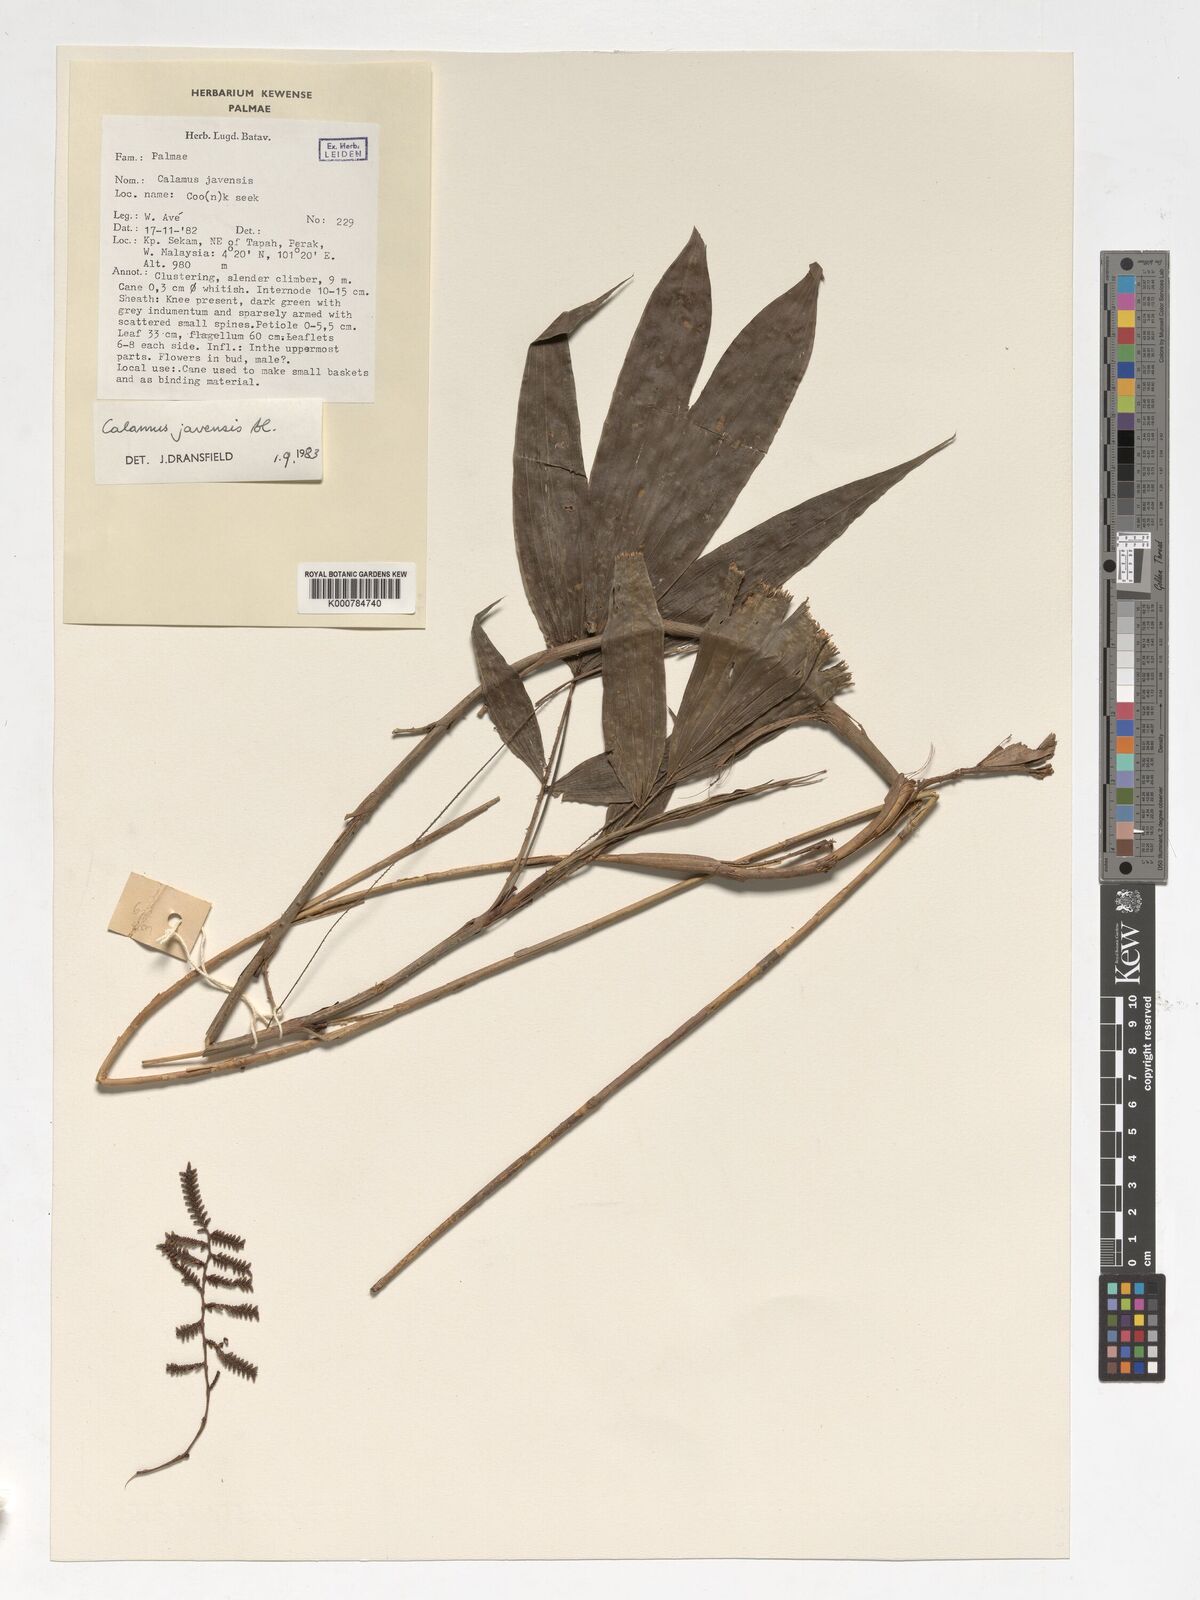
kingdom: Plantae
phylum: Tracheophyta
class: Liliopsida
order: Arecales
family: Arecaceae
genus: Calamus
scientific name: Calamus javensis
